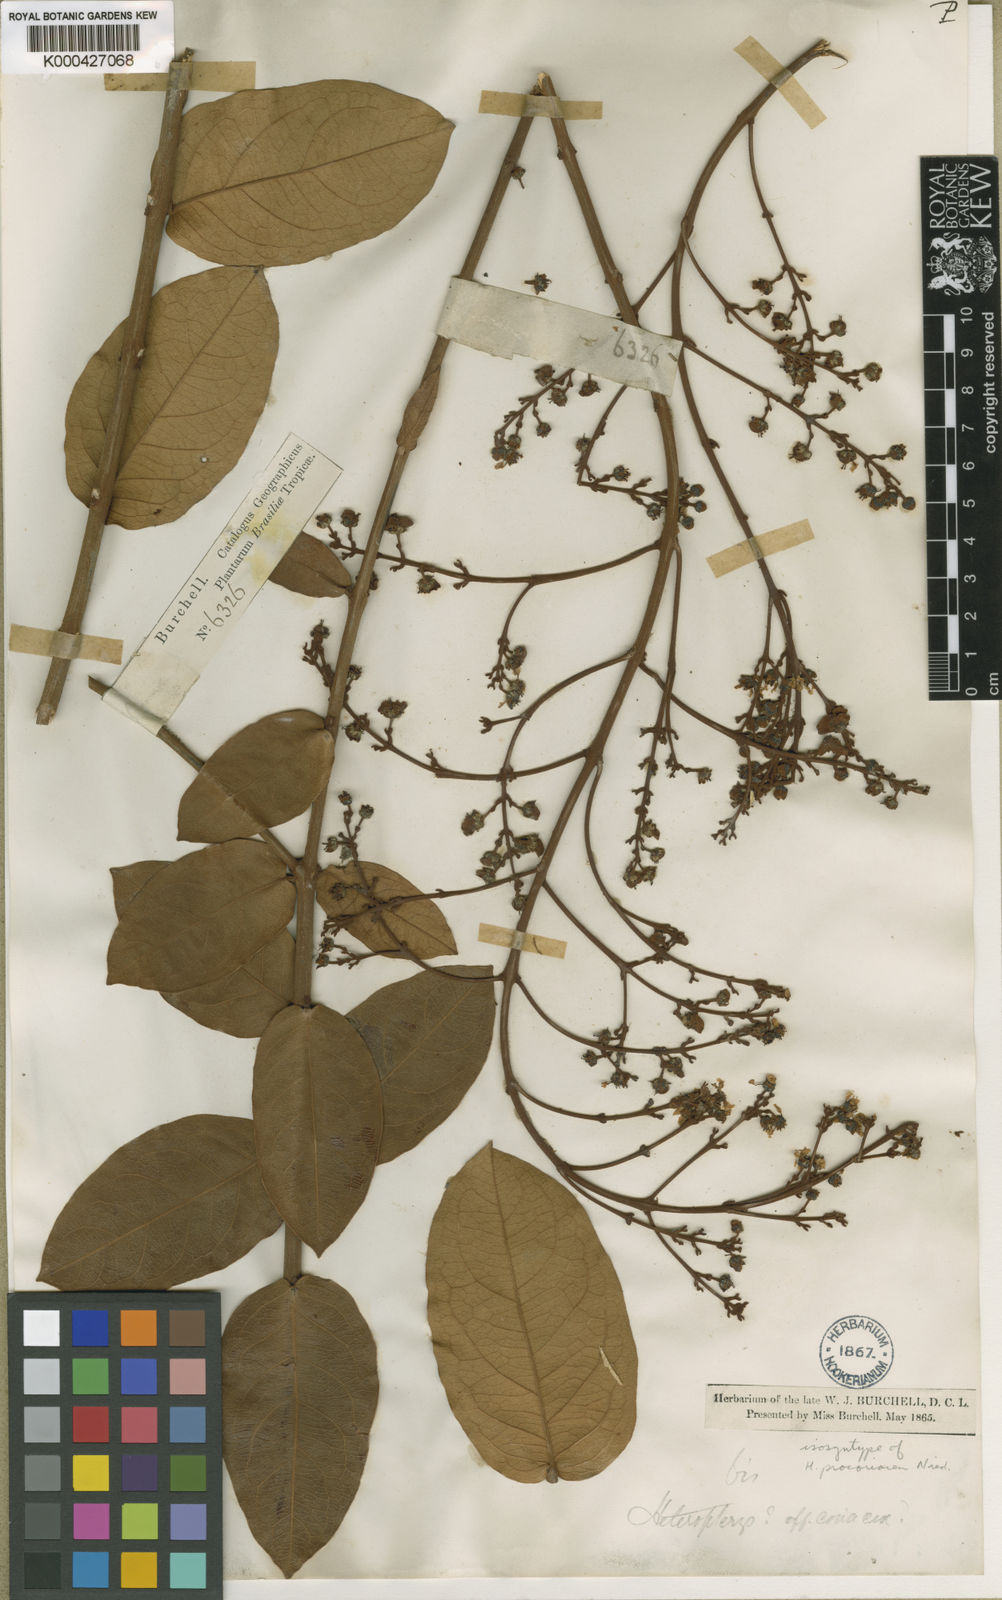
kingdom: Plantae
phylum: Tracheophyta
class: Magnoliopsida
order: Malpighiales
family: Malpighiaceae
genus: Heteropterys
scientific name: Heteropterys procoriacea
